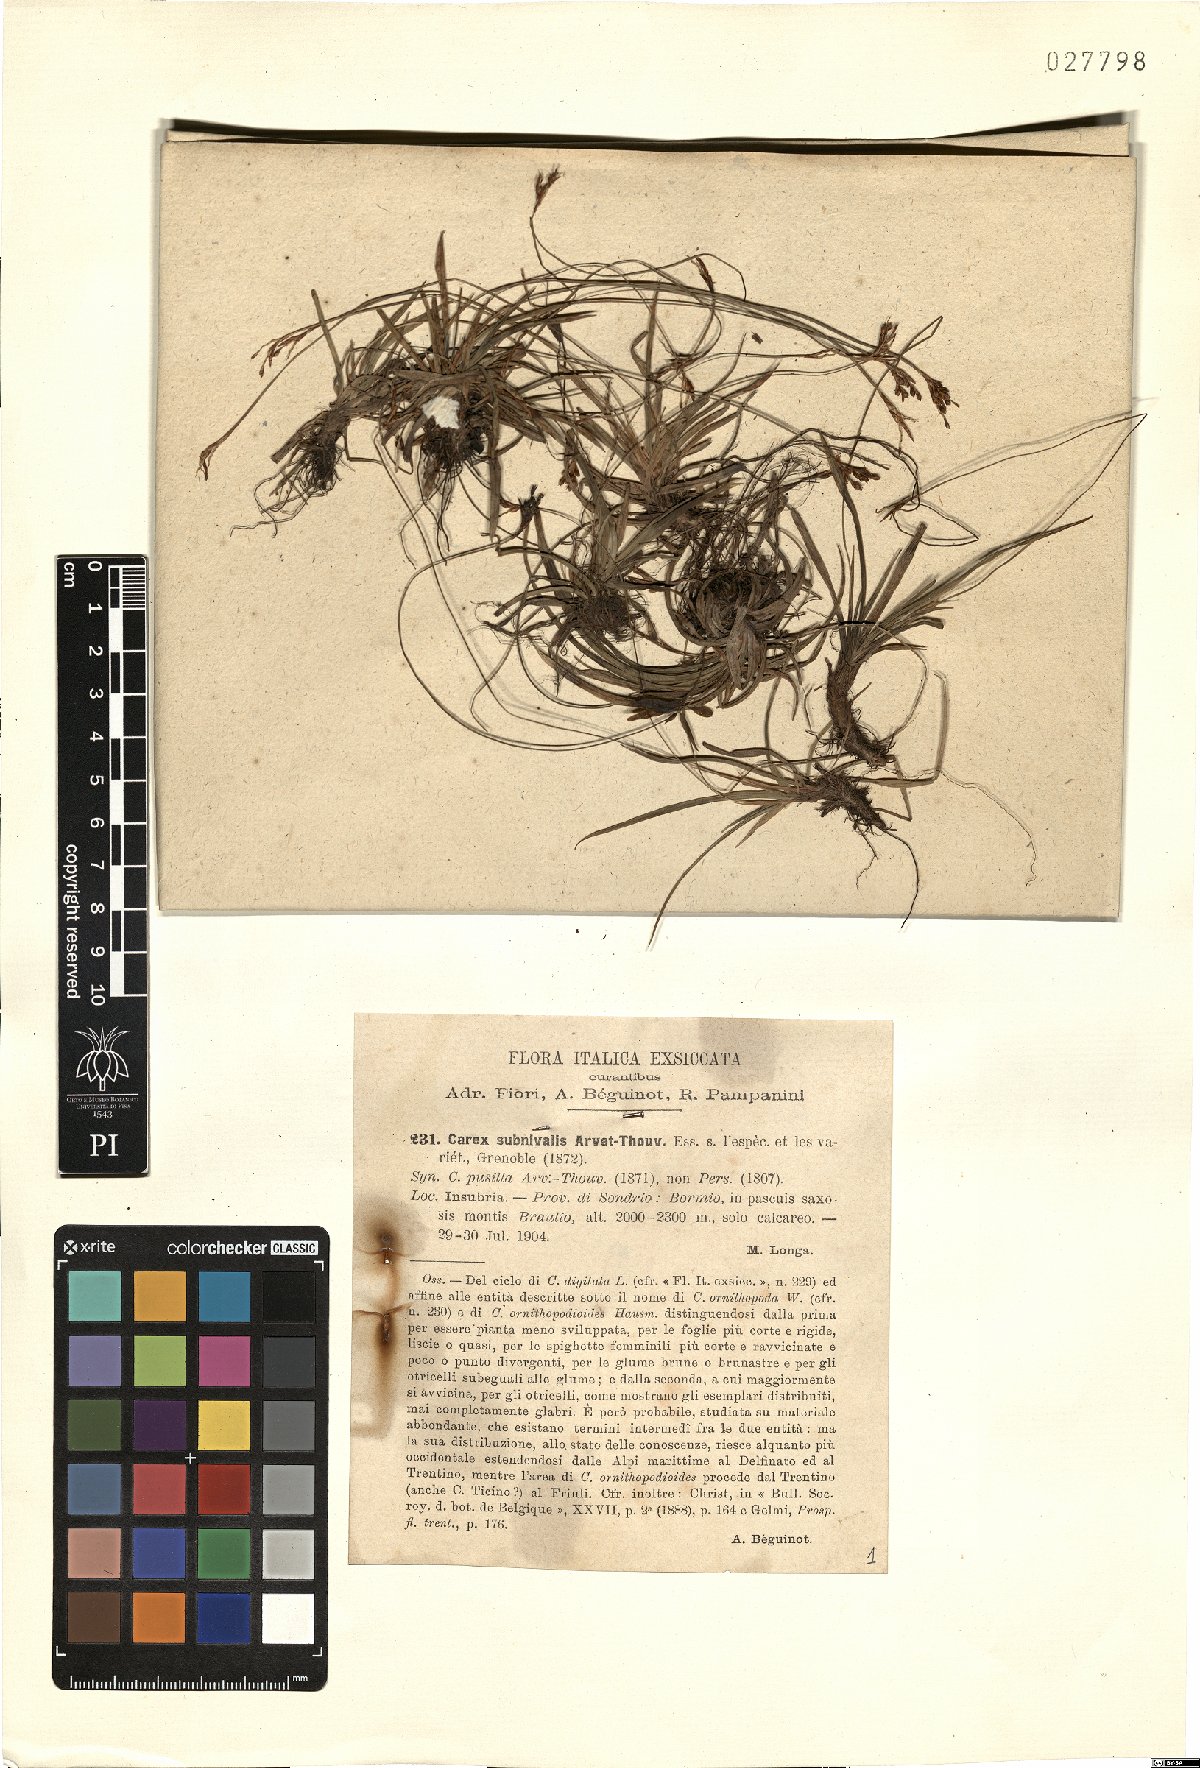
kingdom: Plantae
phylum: Tracheophyta
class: Liliopsida
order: Poales
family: Cyperaceae
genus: Carex
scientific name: Carex ornithopoda
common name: Bird's-foot sedge
